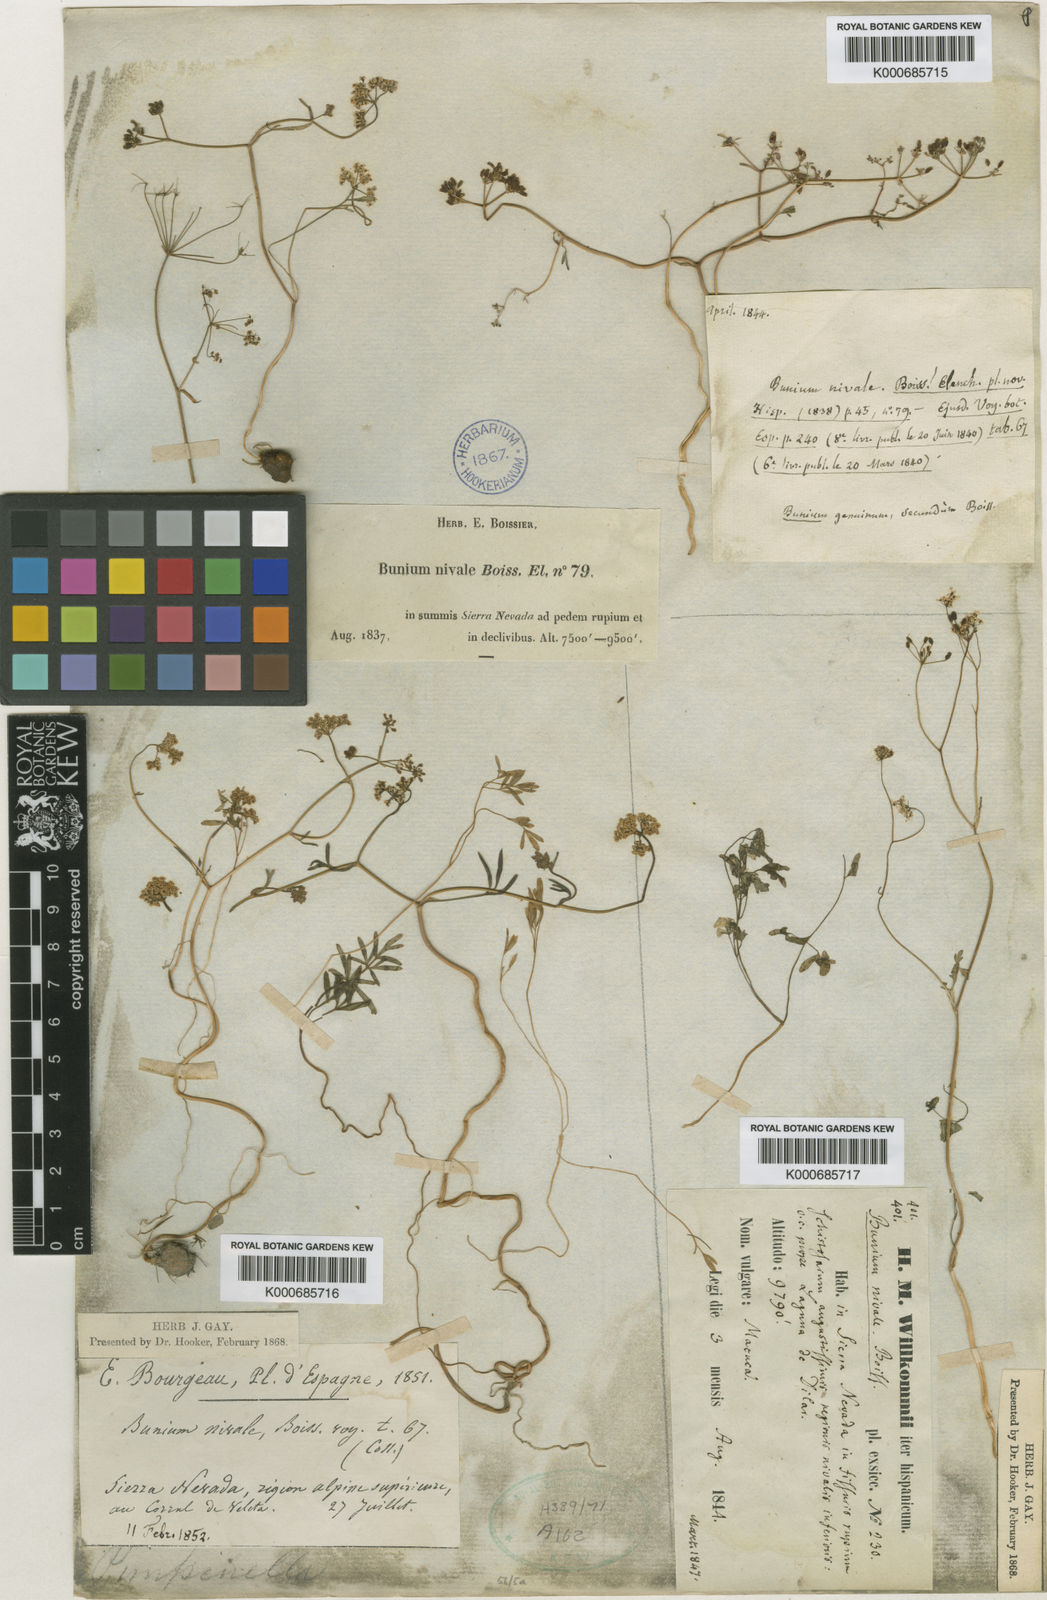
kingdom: Plantae
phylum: Tracheophyta
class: Magnoliopsida
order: Apiales
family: Apiaceae
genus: Bunium
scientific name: Bunium alpinum
